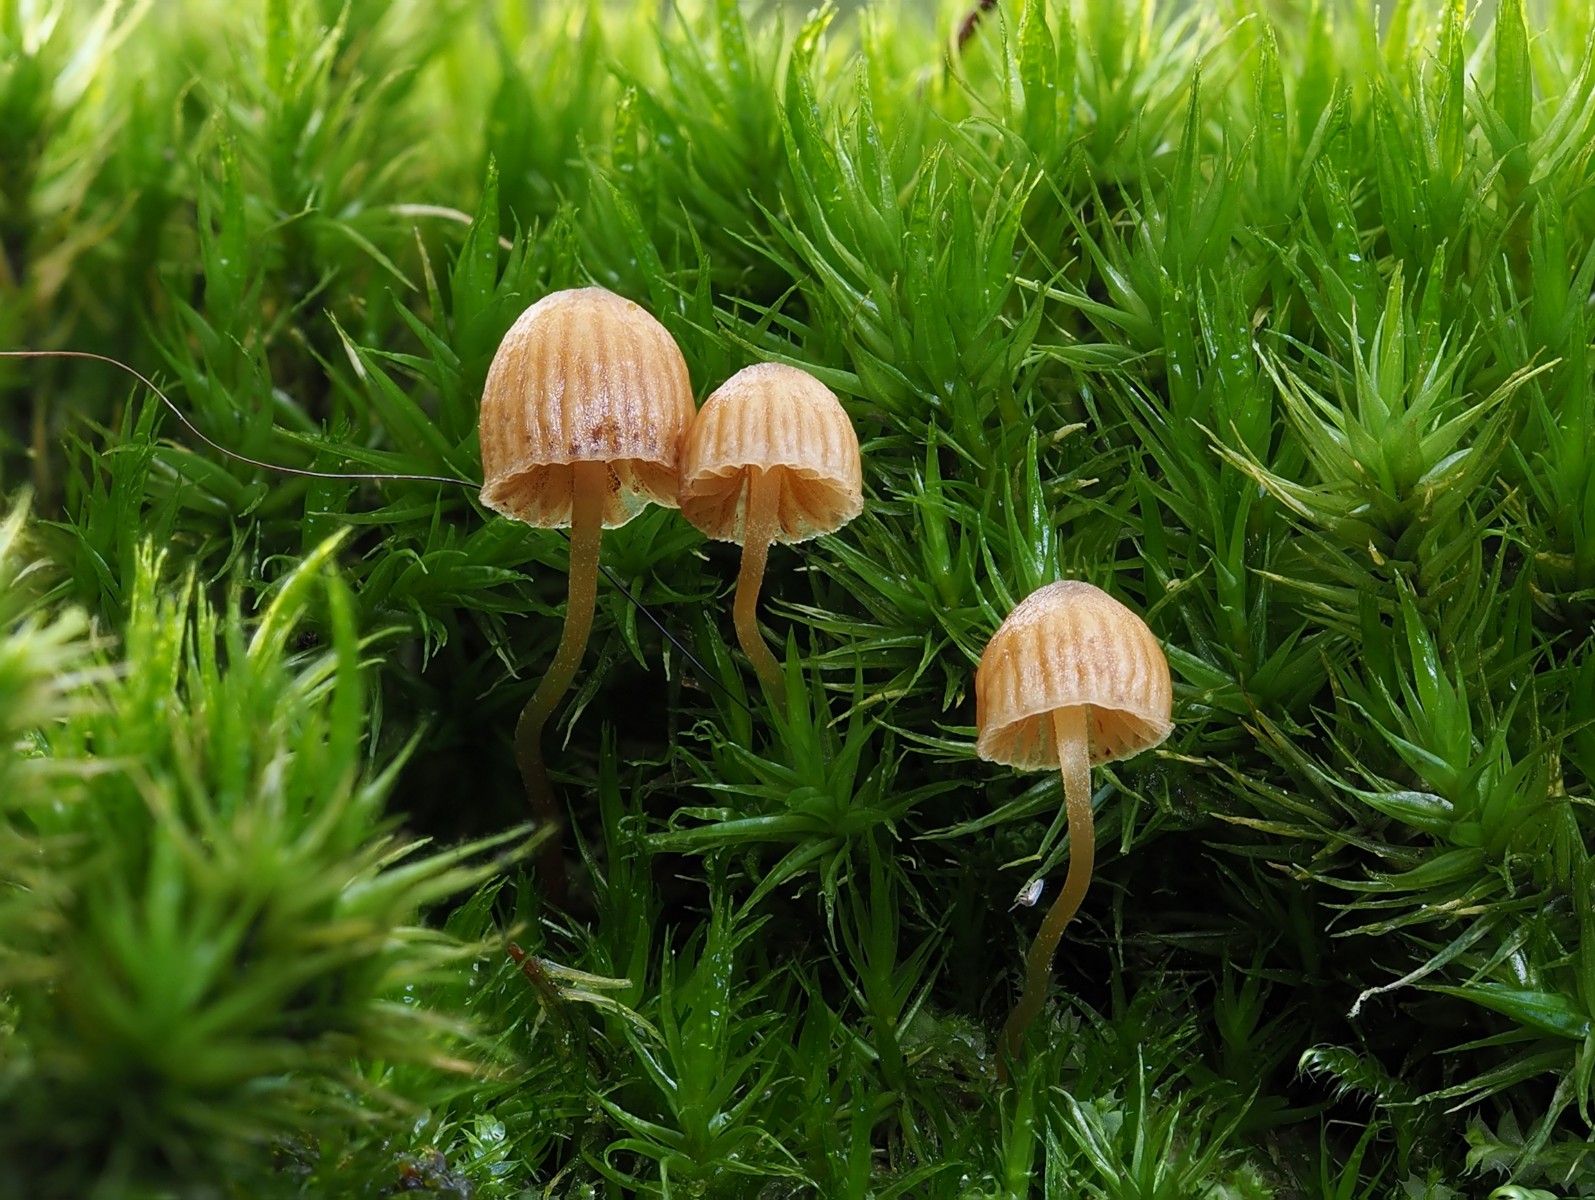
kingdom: Fungi
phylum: Basidiomycota
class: Agaricomycetes
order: Agaricales
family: Hymenogastraceae
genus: Galerina
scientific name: Galerina
